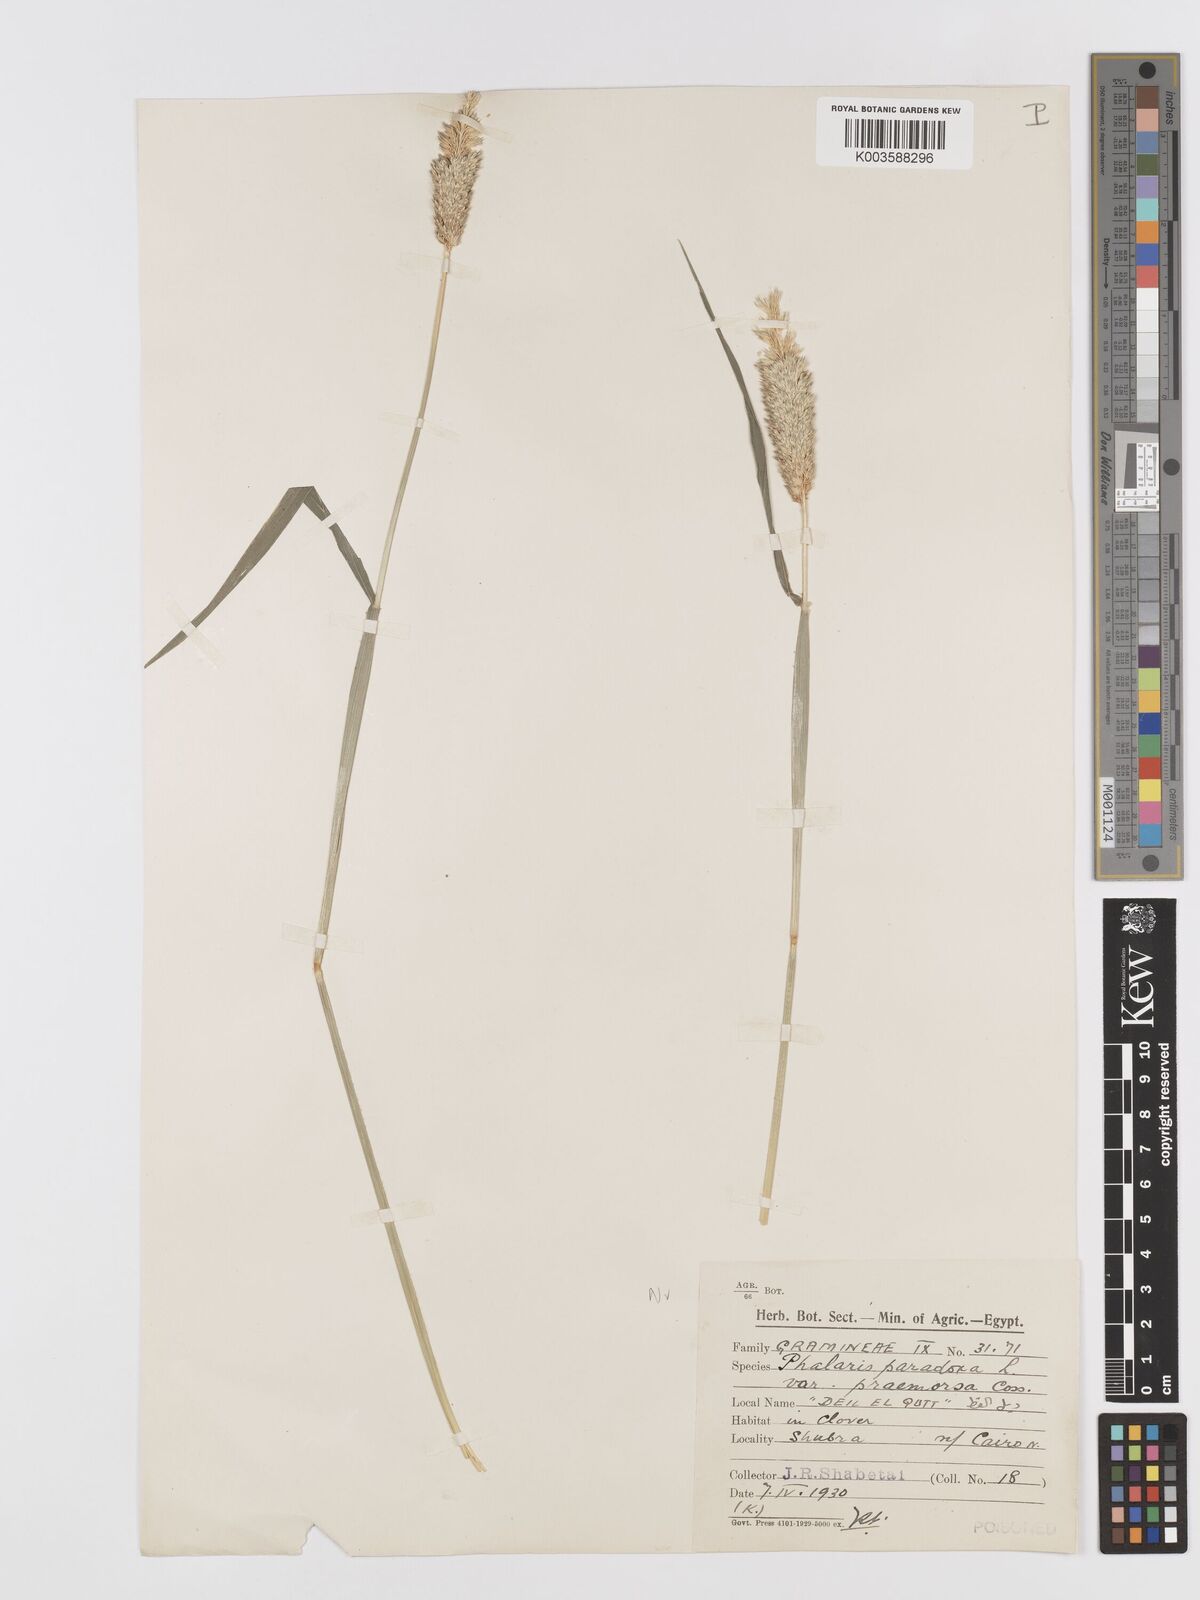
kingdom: Plantae
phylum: Tracheophyta
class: Liliopsida
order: Poales
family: Poaceae
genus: Phalaris
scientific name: Phalaris paradoxa
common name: Awned canary-grass
